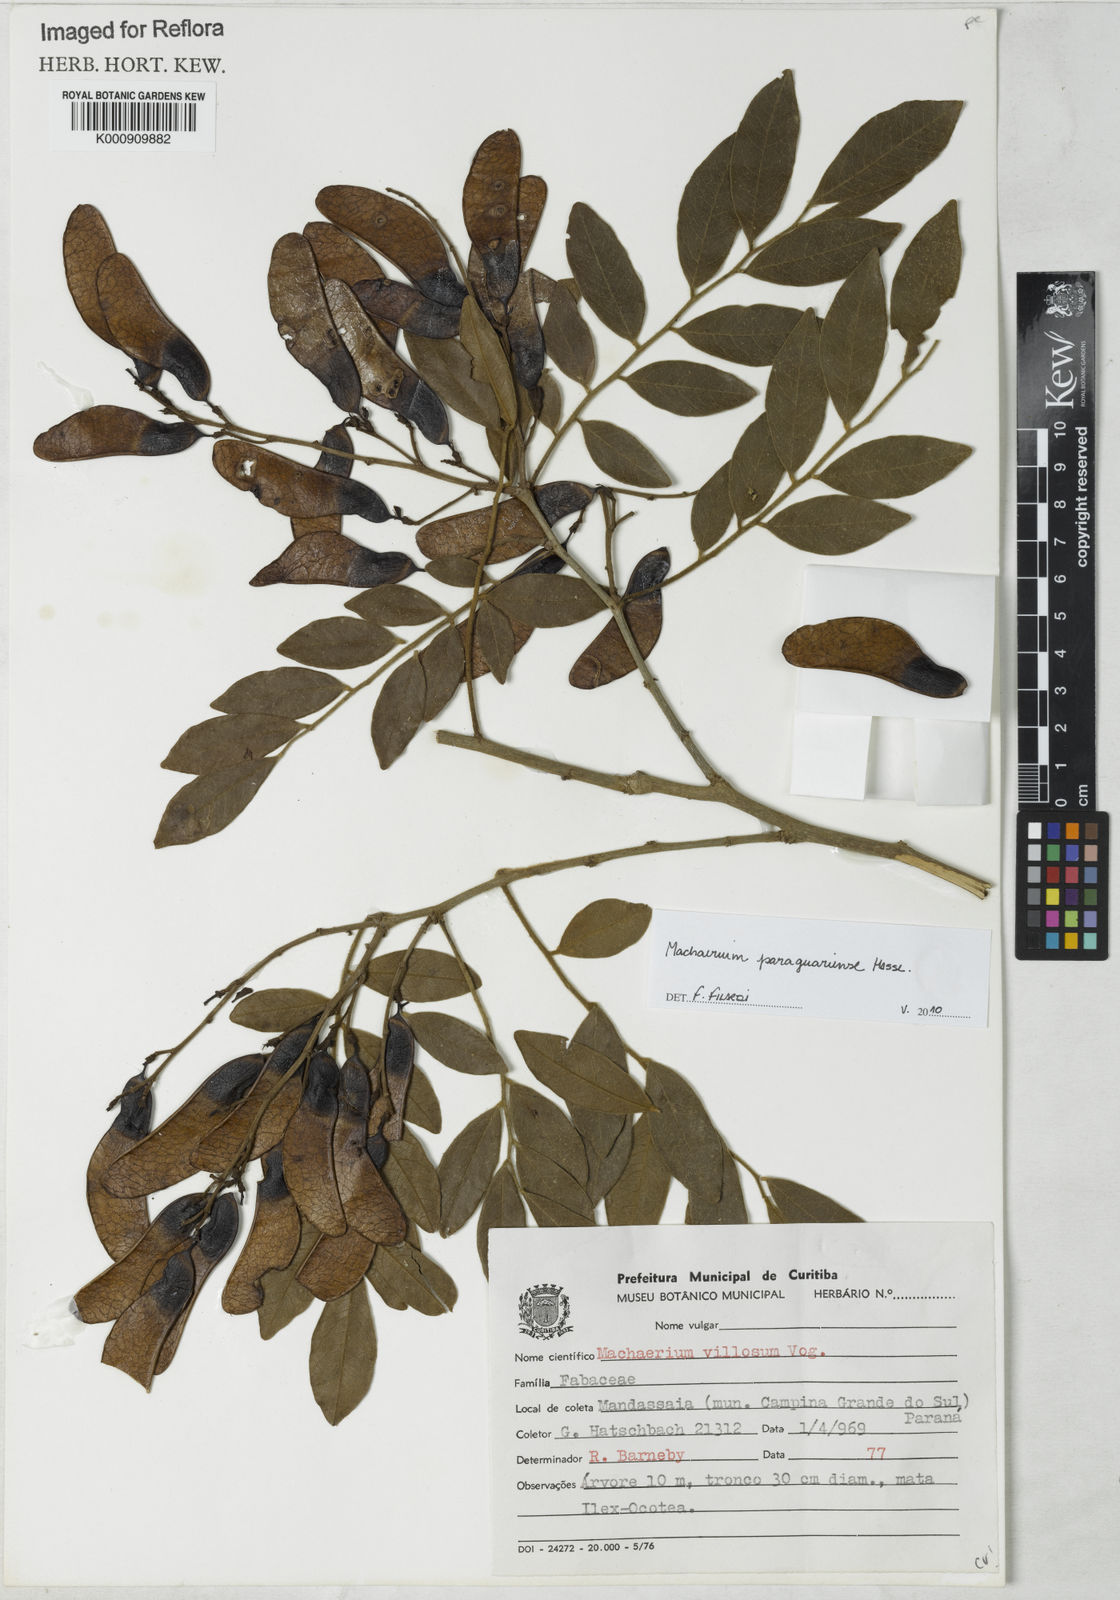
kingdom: Plantae
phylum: Tracheophyta
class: Magnoliopsida
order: Fabales
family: Fabaceae
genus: Machaerium
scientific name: Machaerium oblongifolium
